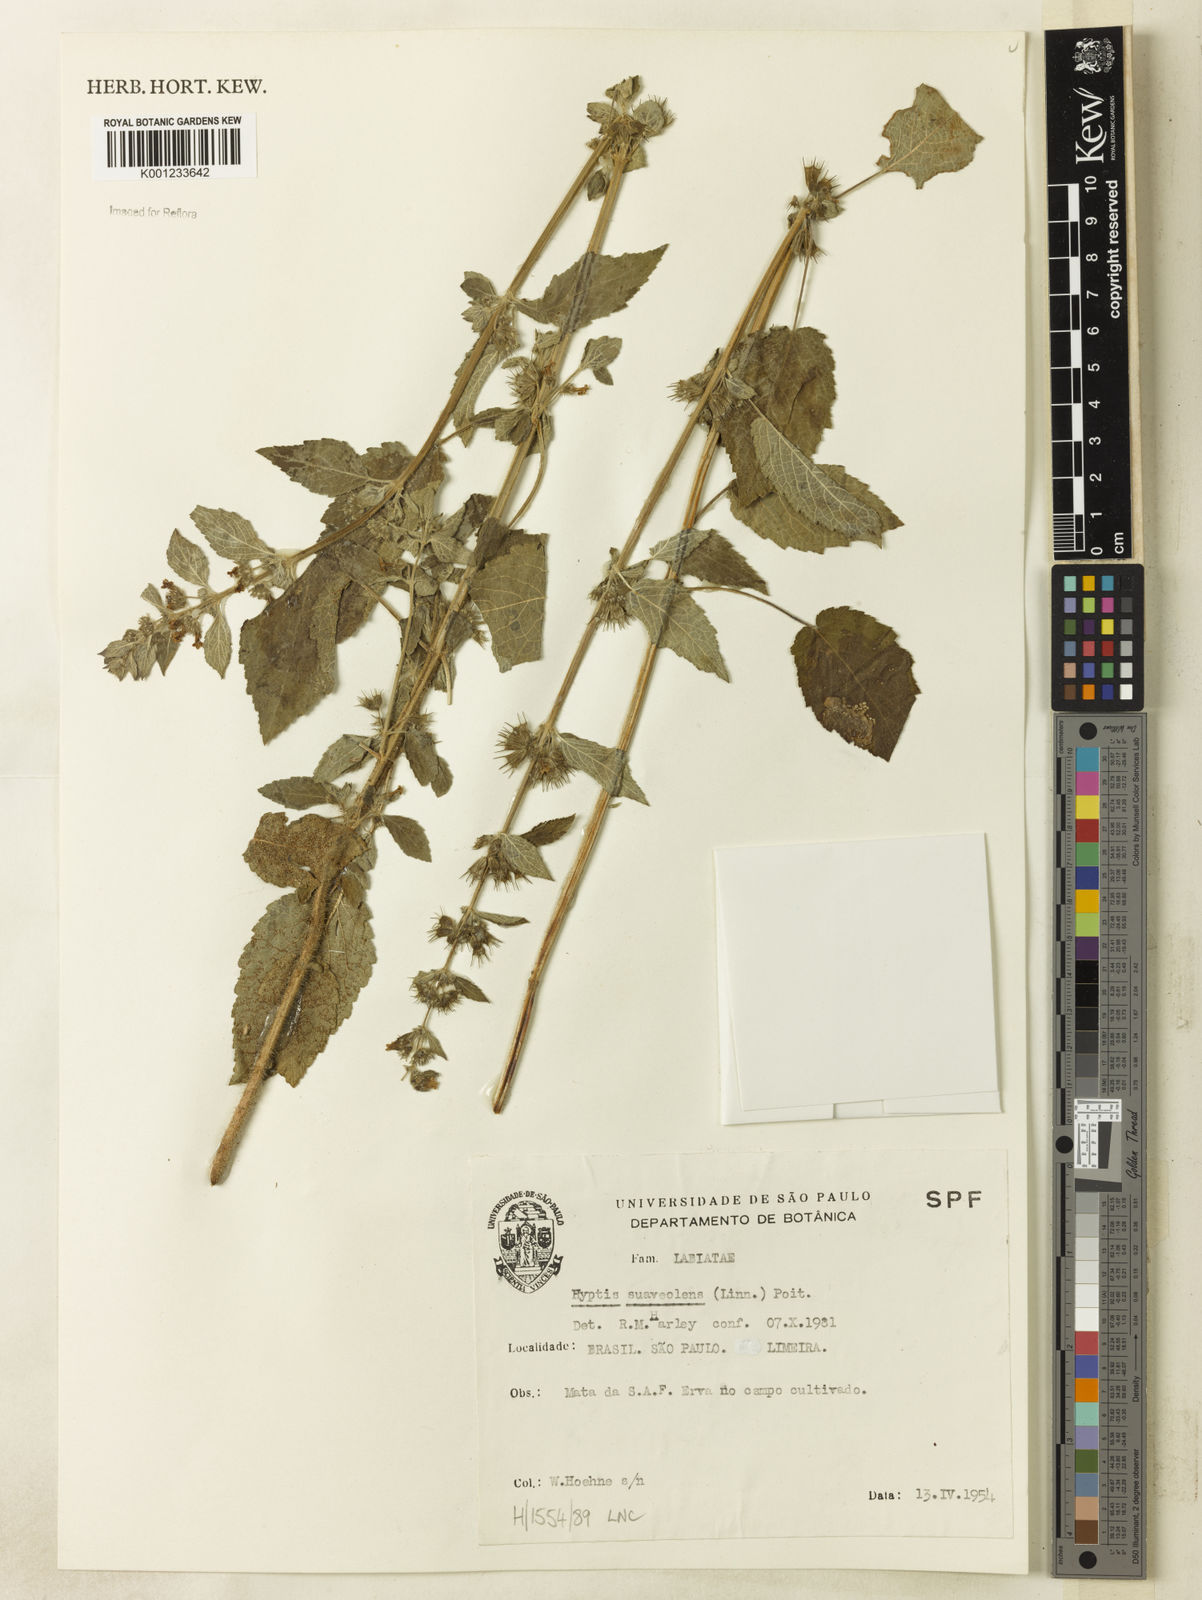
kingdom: Plantae
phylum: Tracheophyta
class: Magnoliopsida
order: Lamiales
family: Lamiaceae
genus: Mesosphaerum
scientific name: Mesosphaerum suaveolens
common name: Pignut
